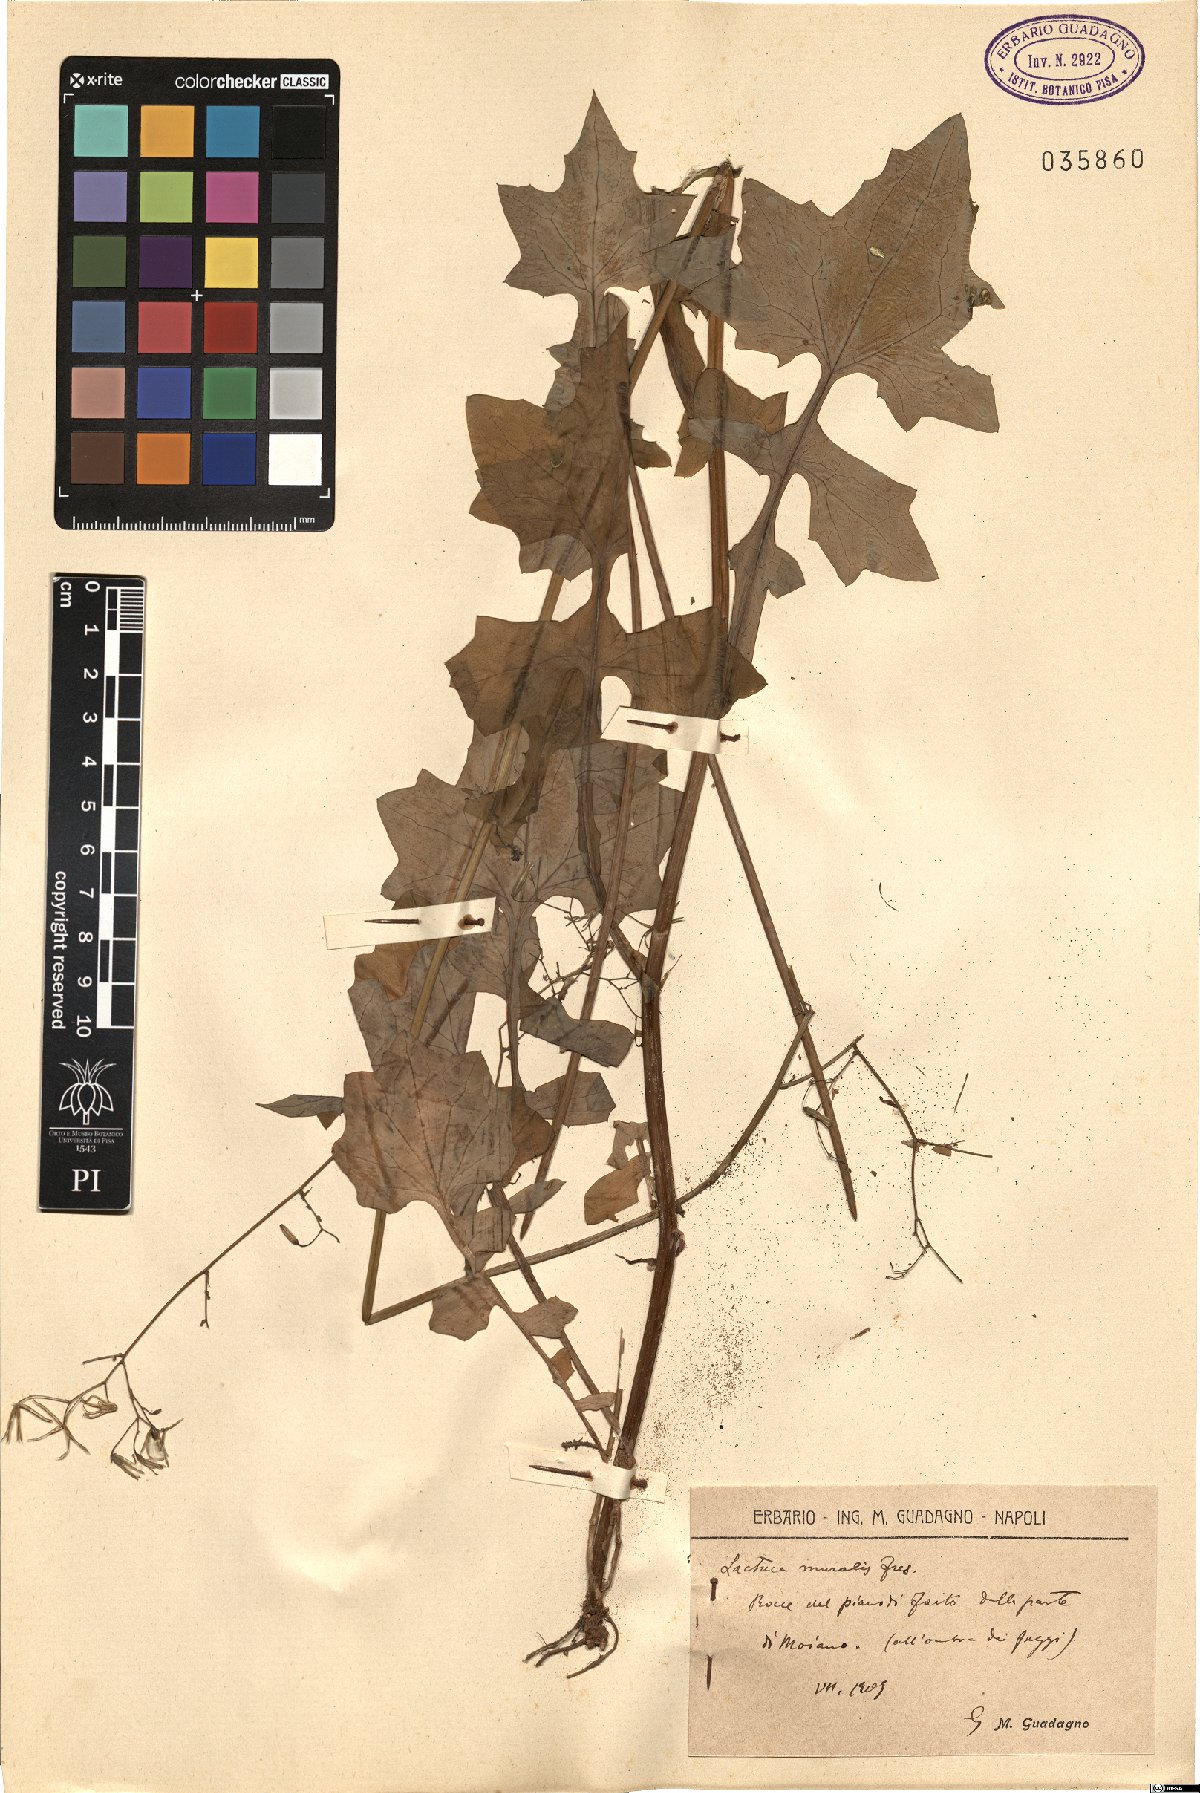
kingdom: Plantae
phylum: Tracheophyta
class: Magnoliopsida
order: Asterales
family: Asteraceae
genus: Mycelis
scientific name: Mycelis muralis
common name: Wall lettuce
